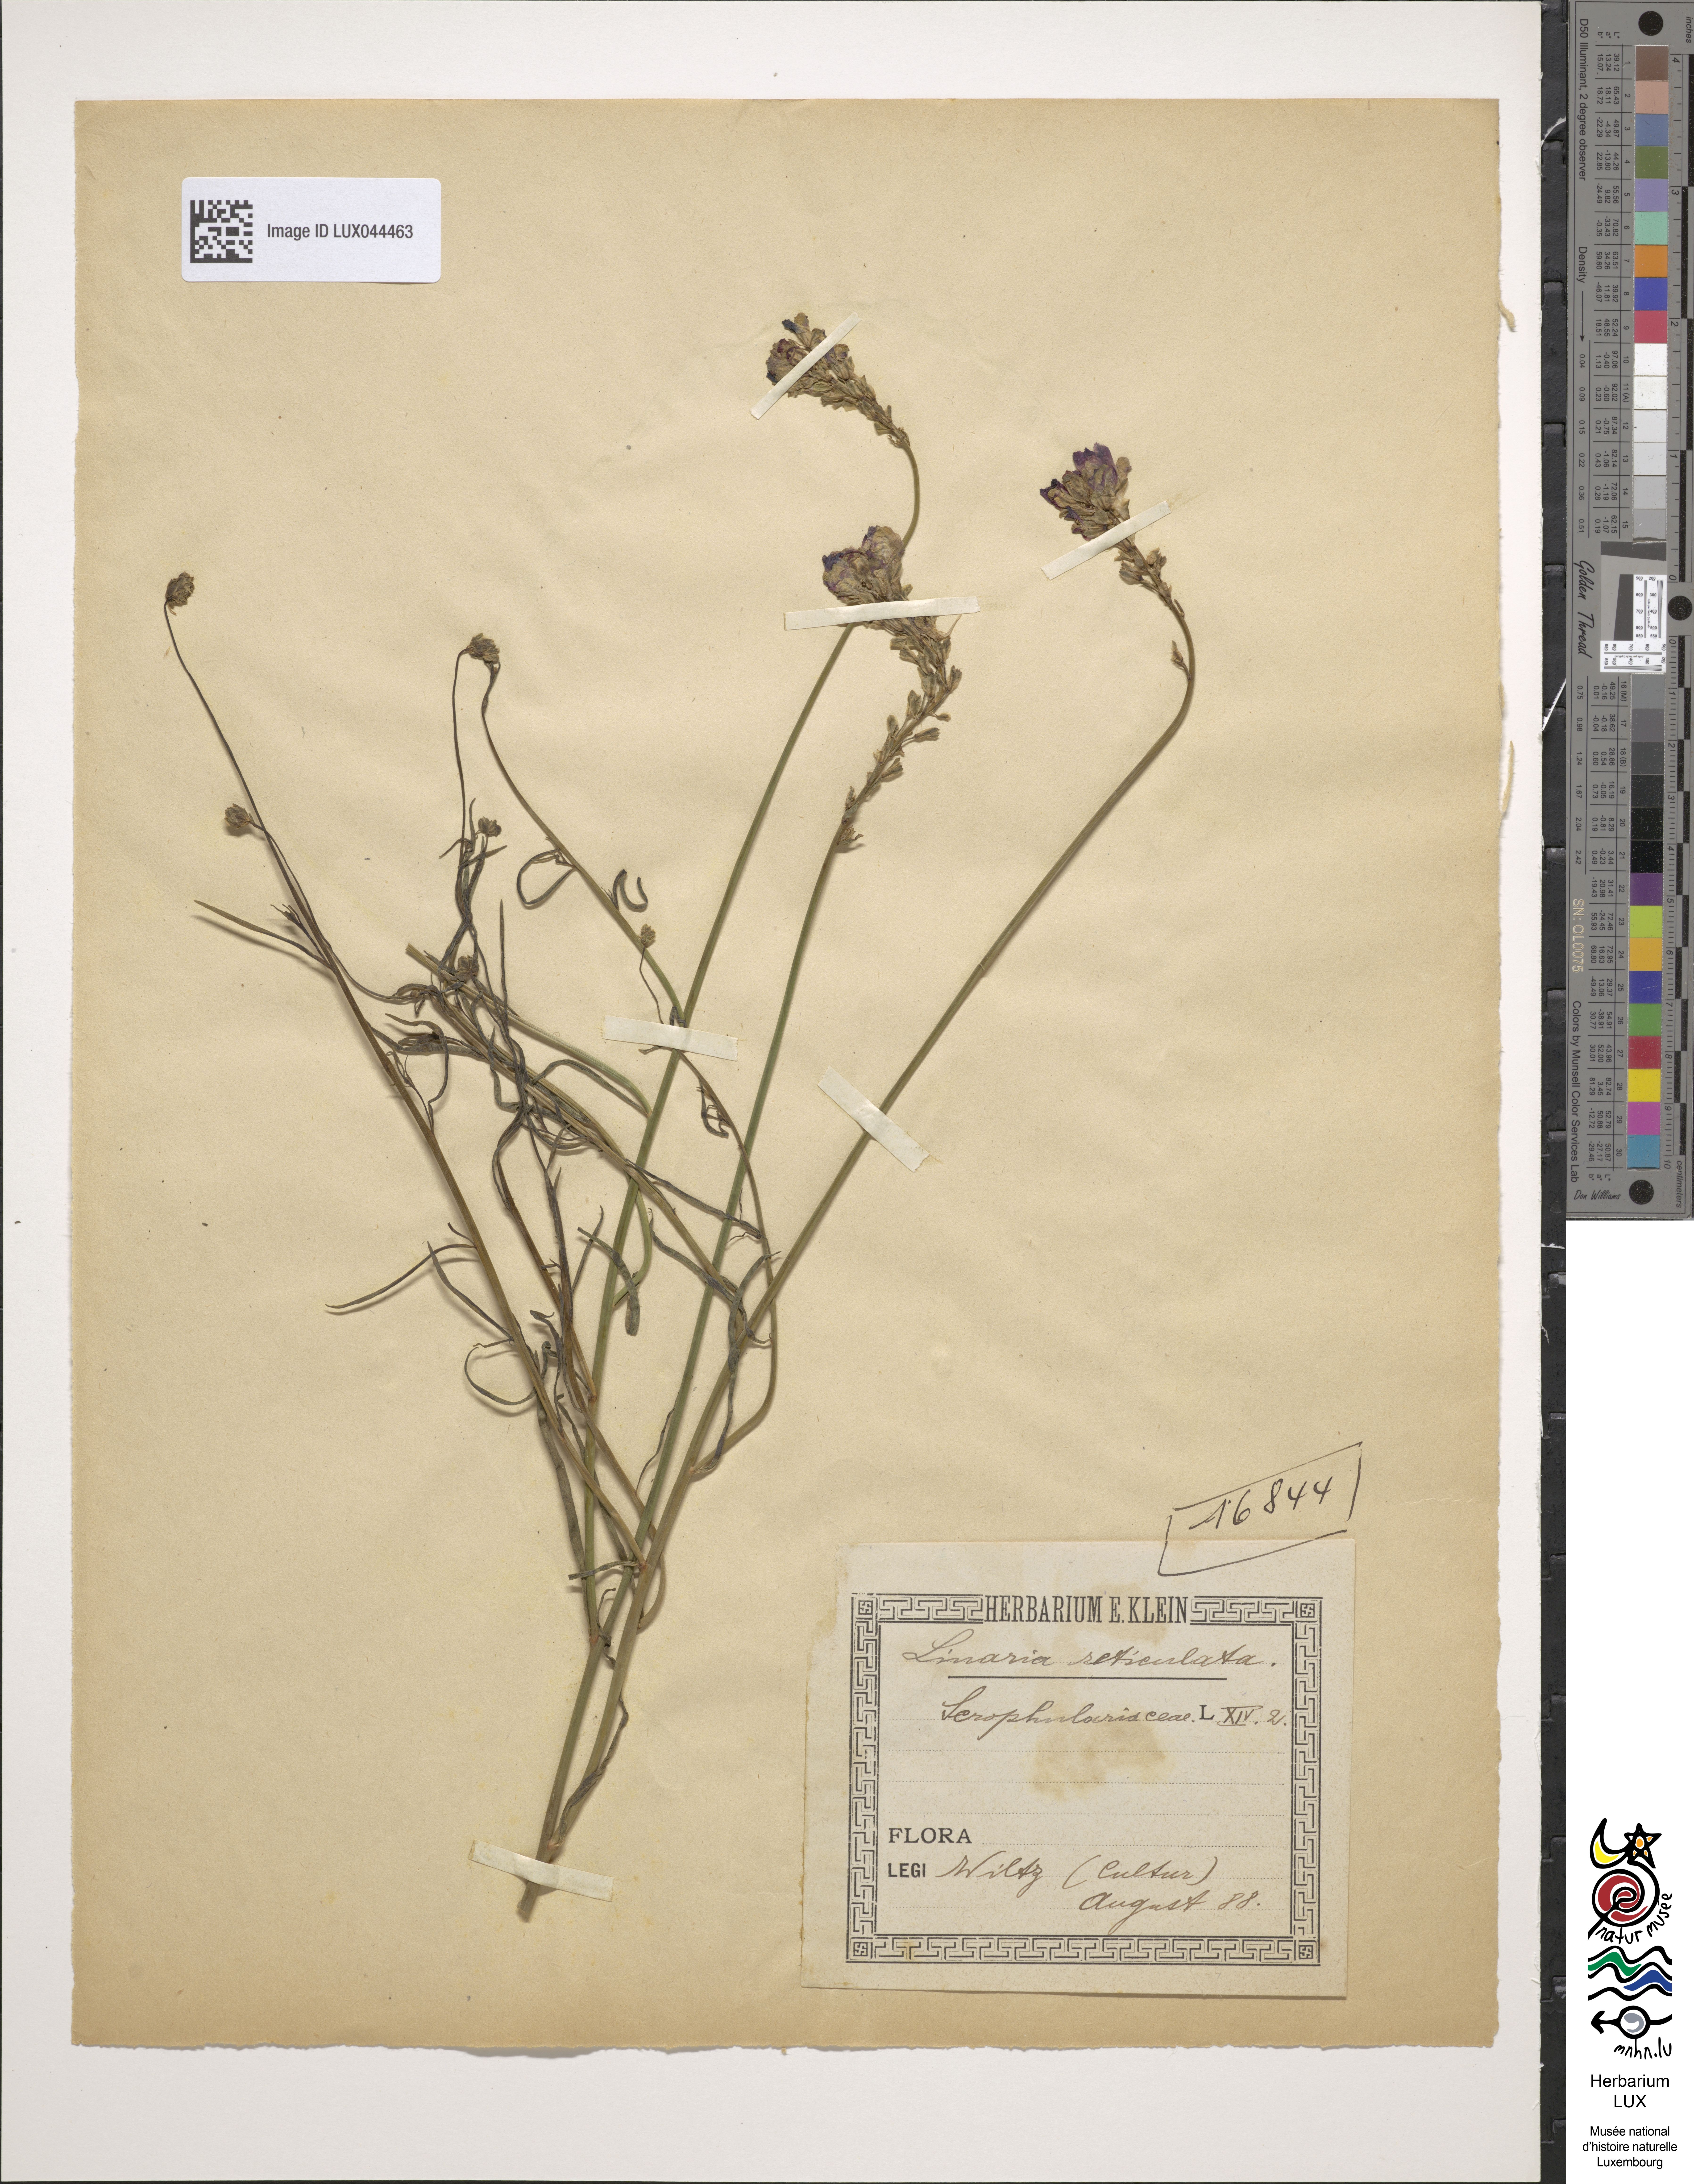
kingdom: Plantae
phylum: Tracheophyta
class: Magnoliopsida
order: Lamiales
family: Plantaginaceae
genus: Linaria
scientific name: Linaria pinifolia
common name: Pineneedle toadflax
